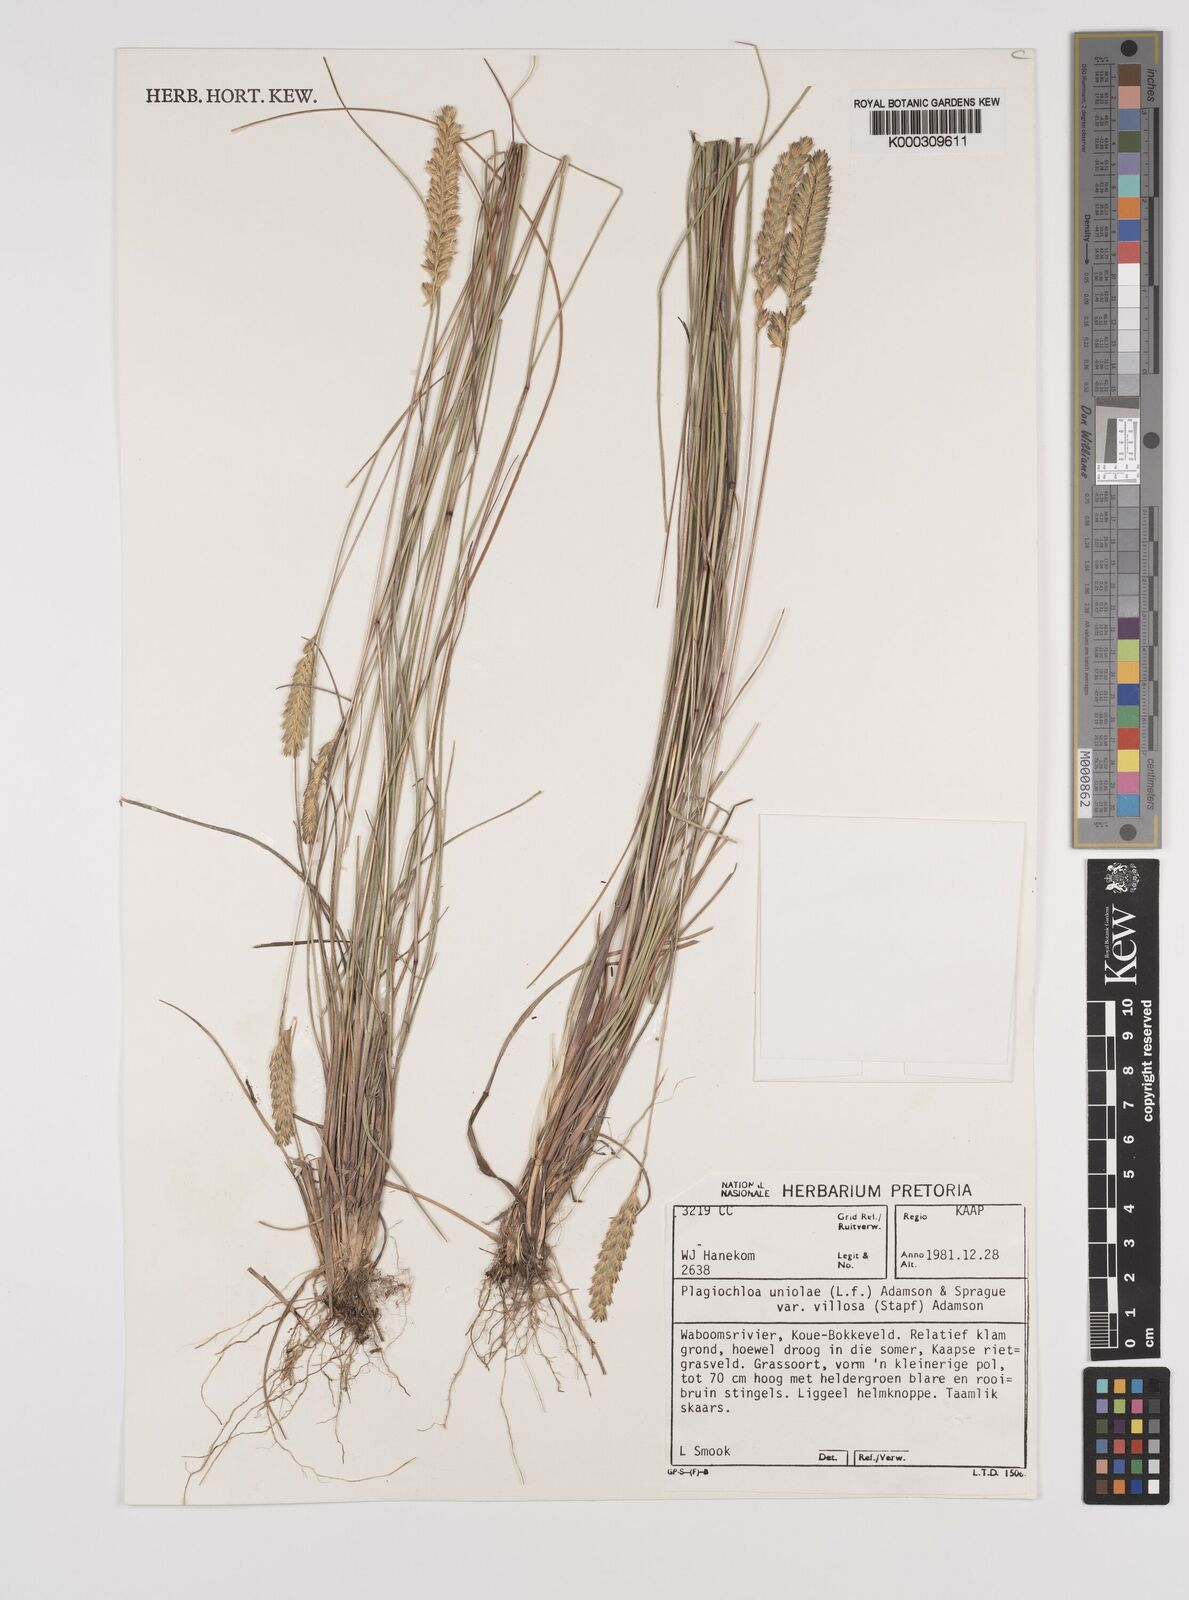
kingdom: Plantae
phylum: Tracheophyta
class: Liliopsida
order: Poales
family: Poaceae
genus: Tribolium
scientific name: Tribolium uniolae
